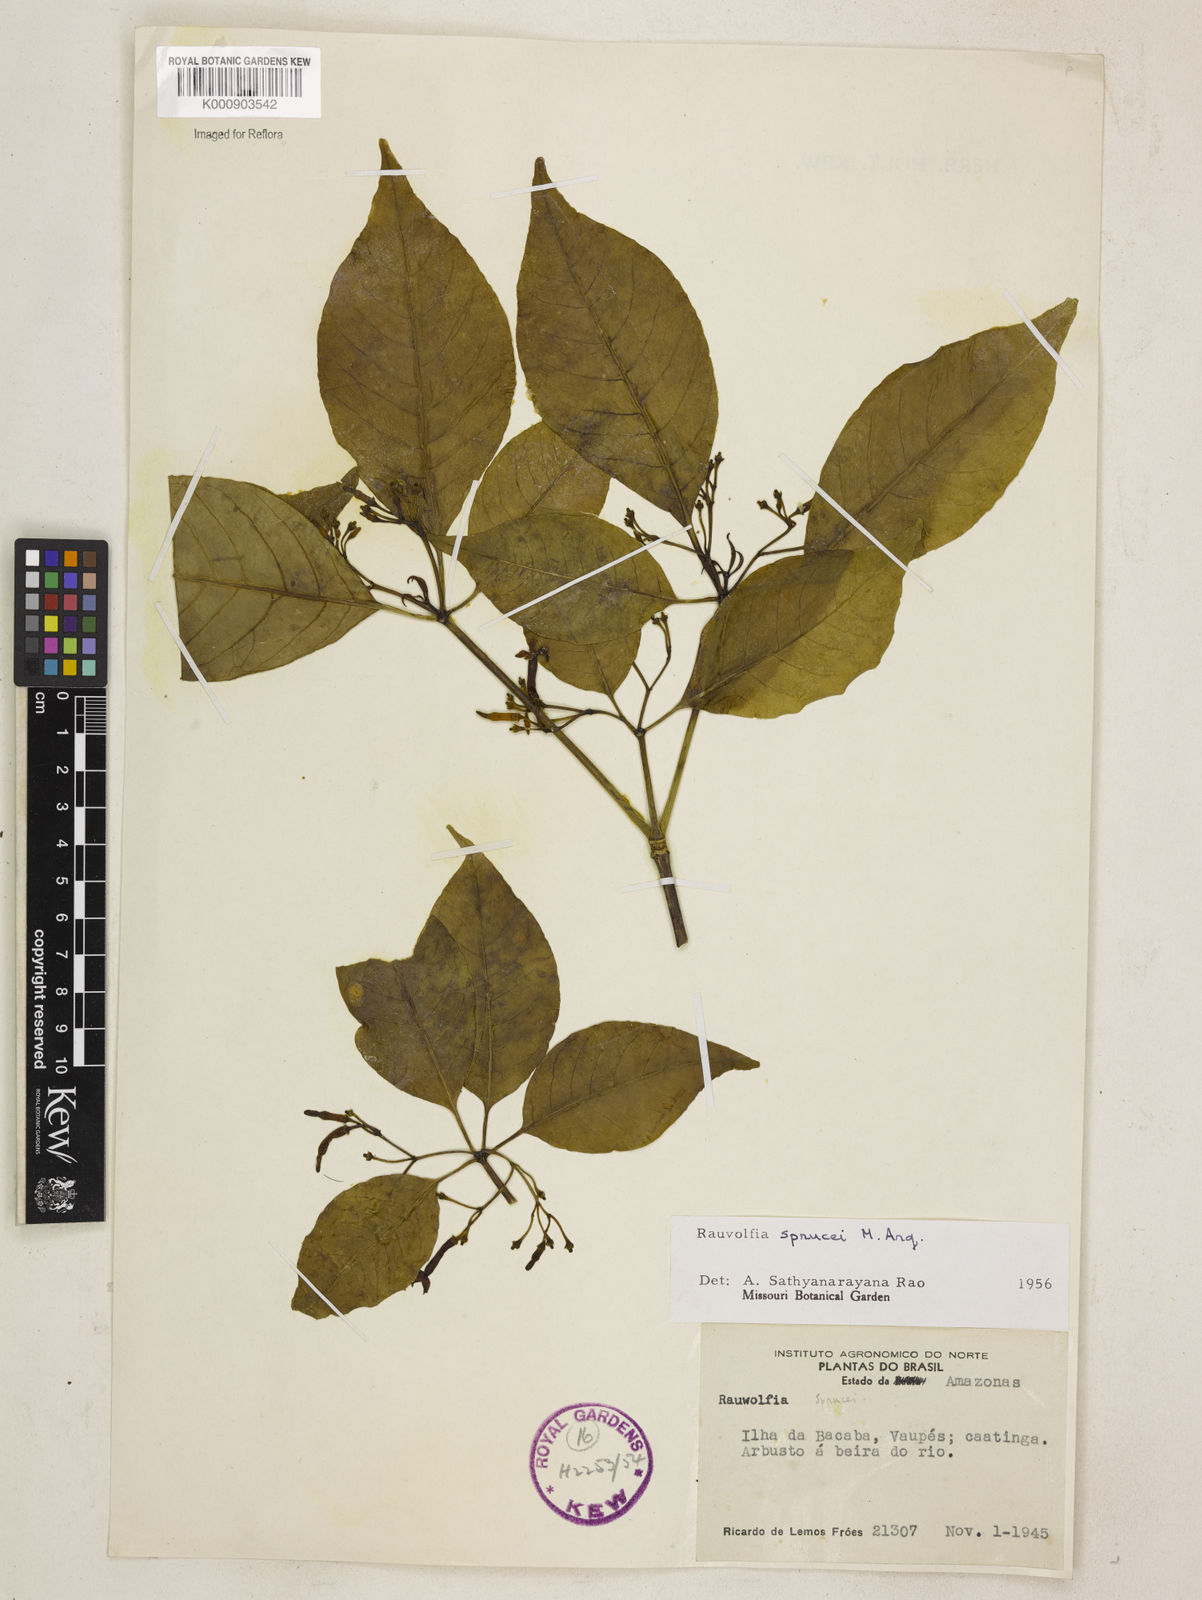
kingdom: Plantae
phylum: Tracheophyta
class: Magnoliopsida
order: Gentianales
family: Apocynaceae
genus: Rauvolfia
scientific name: Rauvolfia
